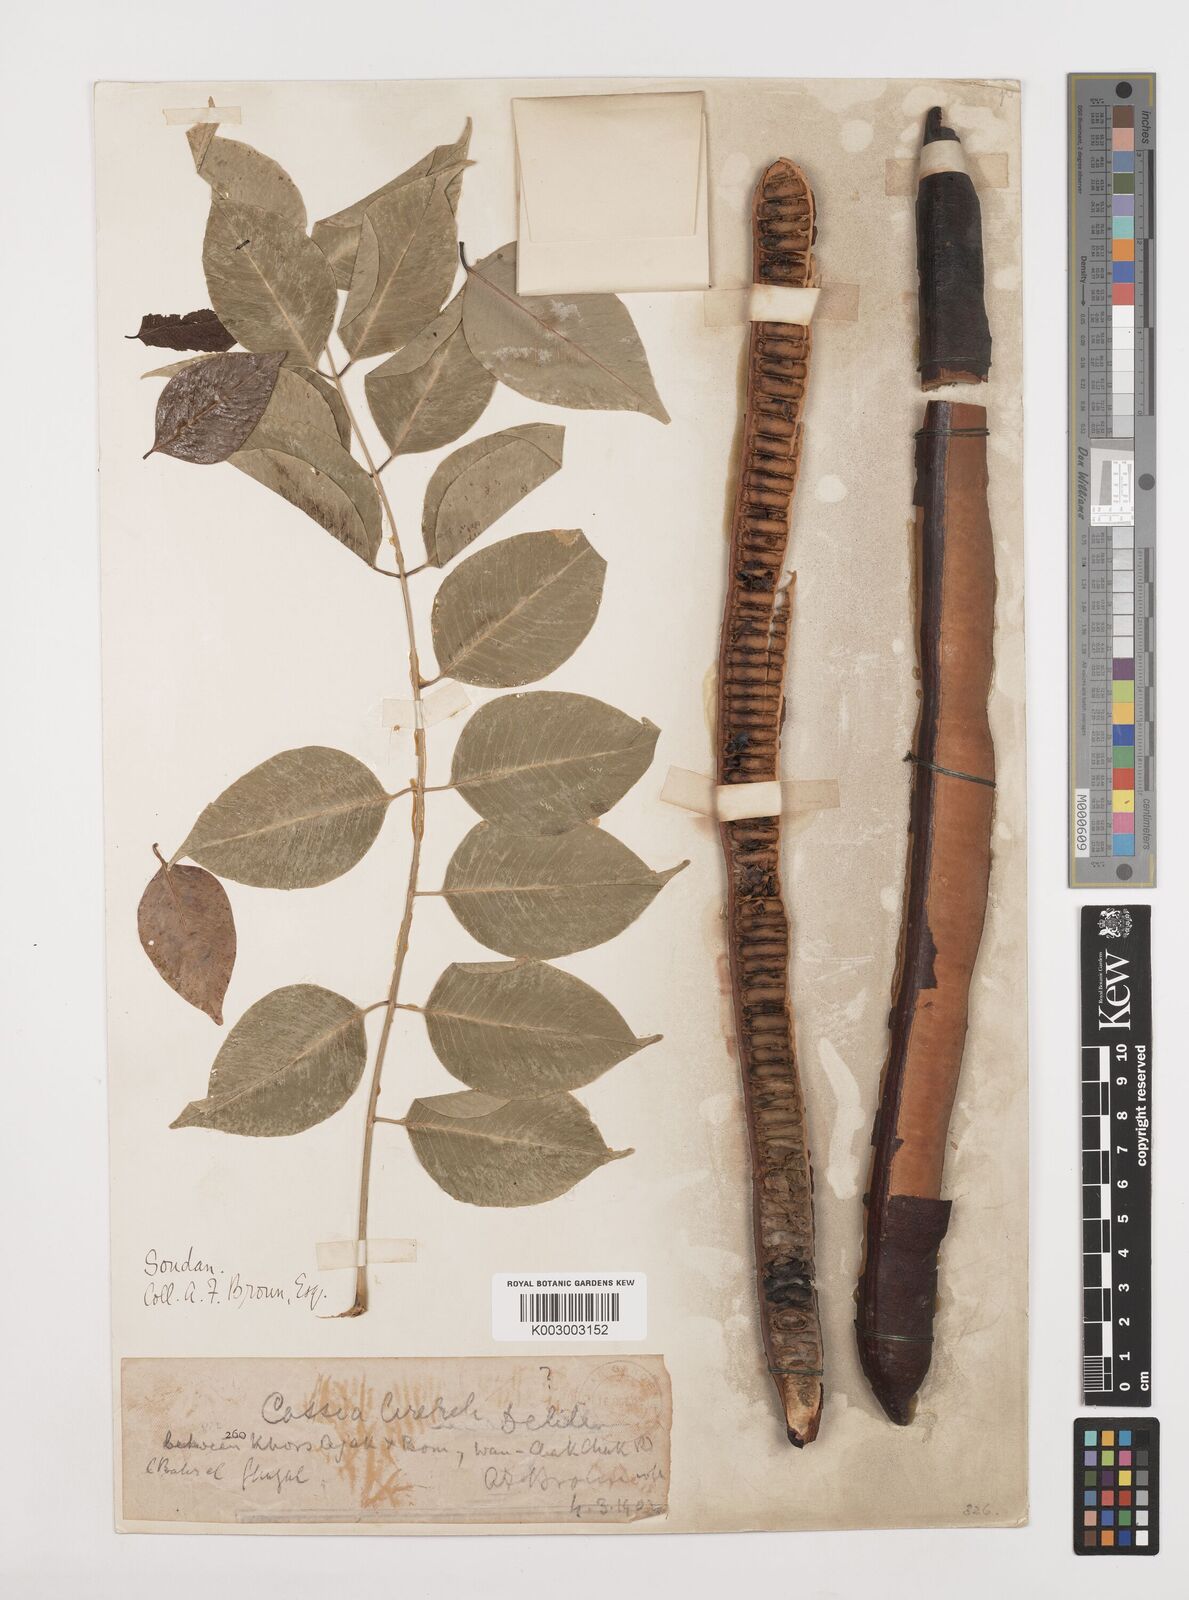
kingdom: Plantae
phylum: Tracheophyta
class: Magnoliopsida
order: Fabales
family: Fabaceae
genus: Cassia
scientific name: Cassia arereh
